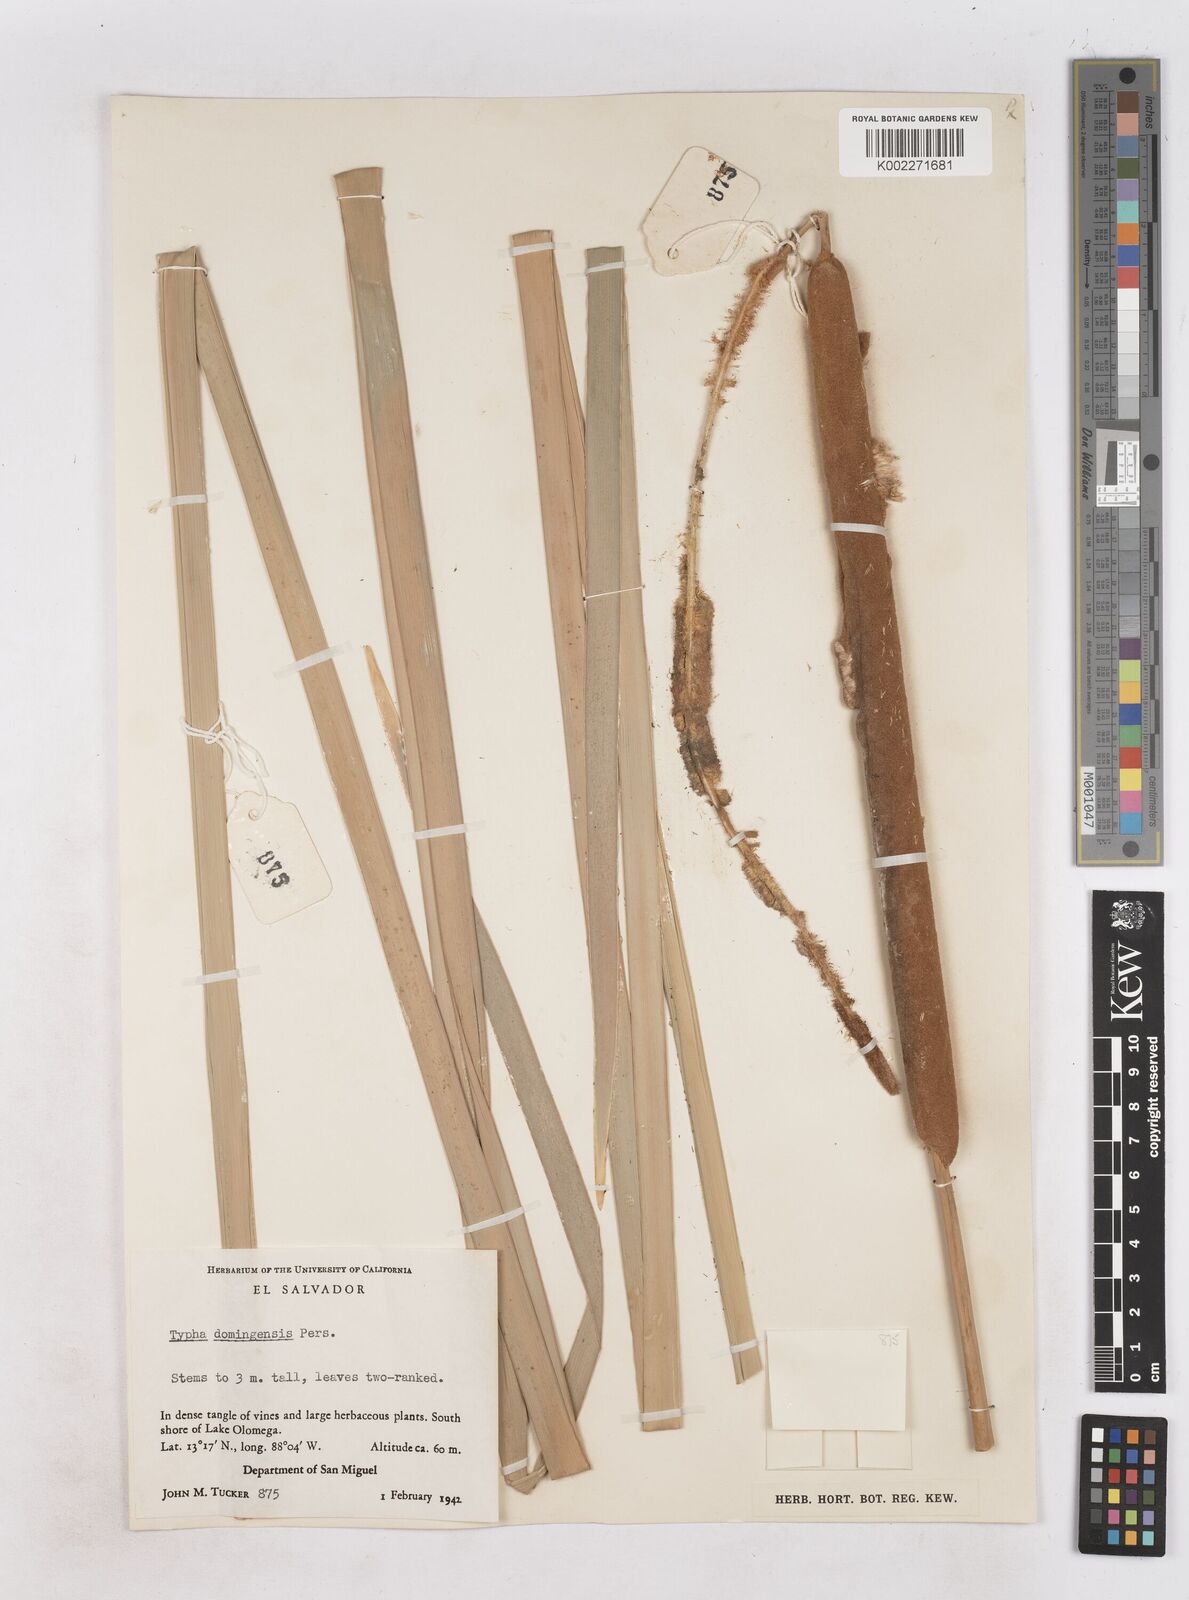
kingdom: Plantae
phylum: Tracheophyta
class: Liliopsida
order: Poales
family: Typhaceae
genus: Typha
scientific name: Typha domingensis
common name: Southern cattail
